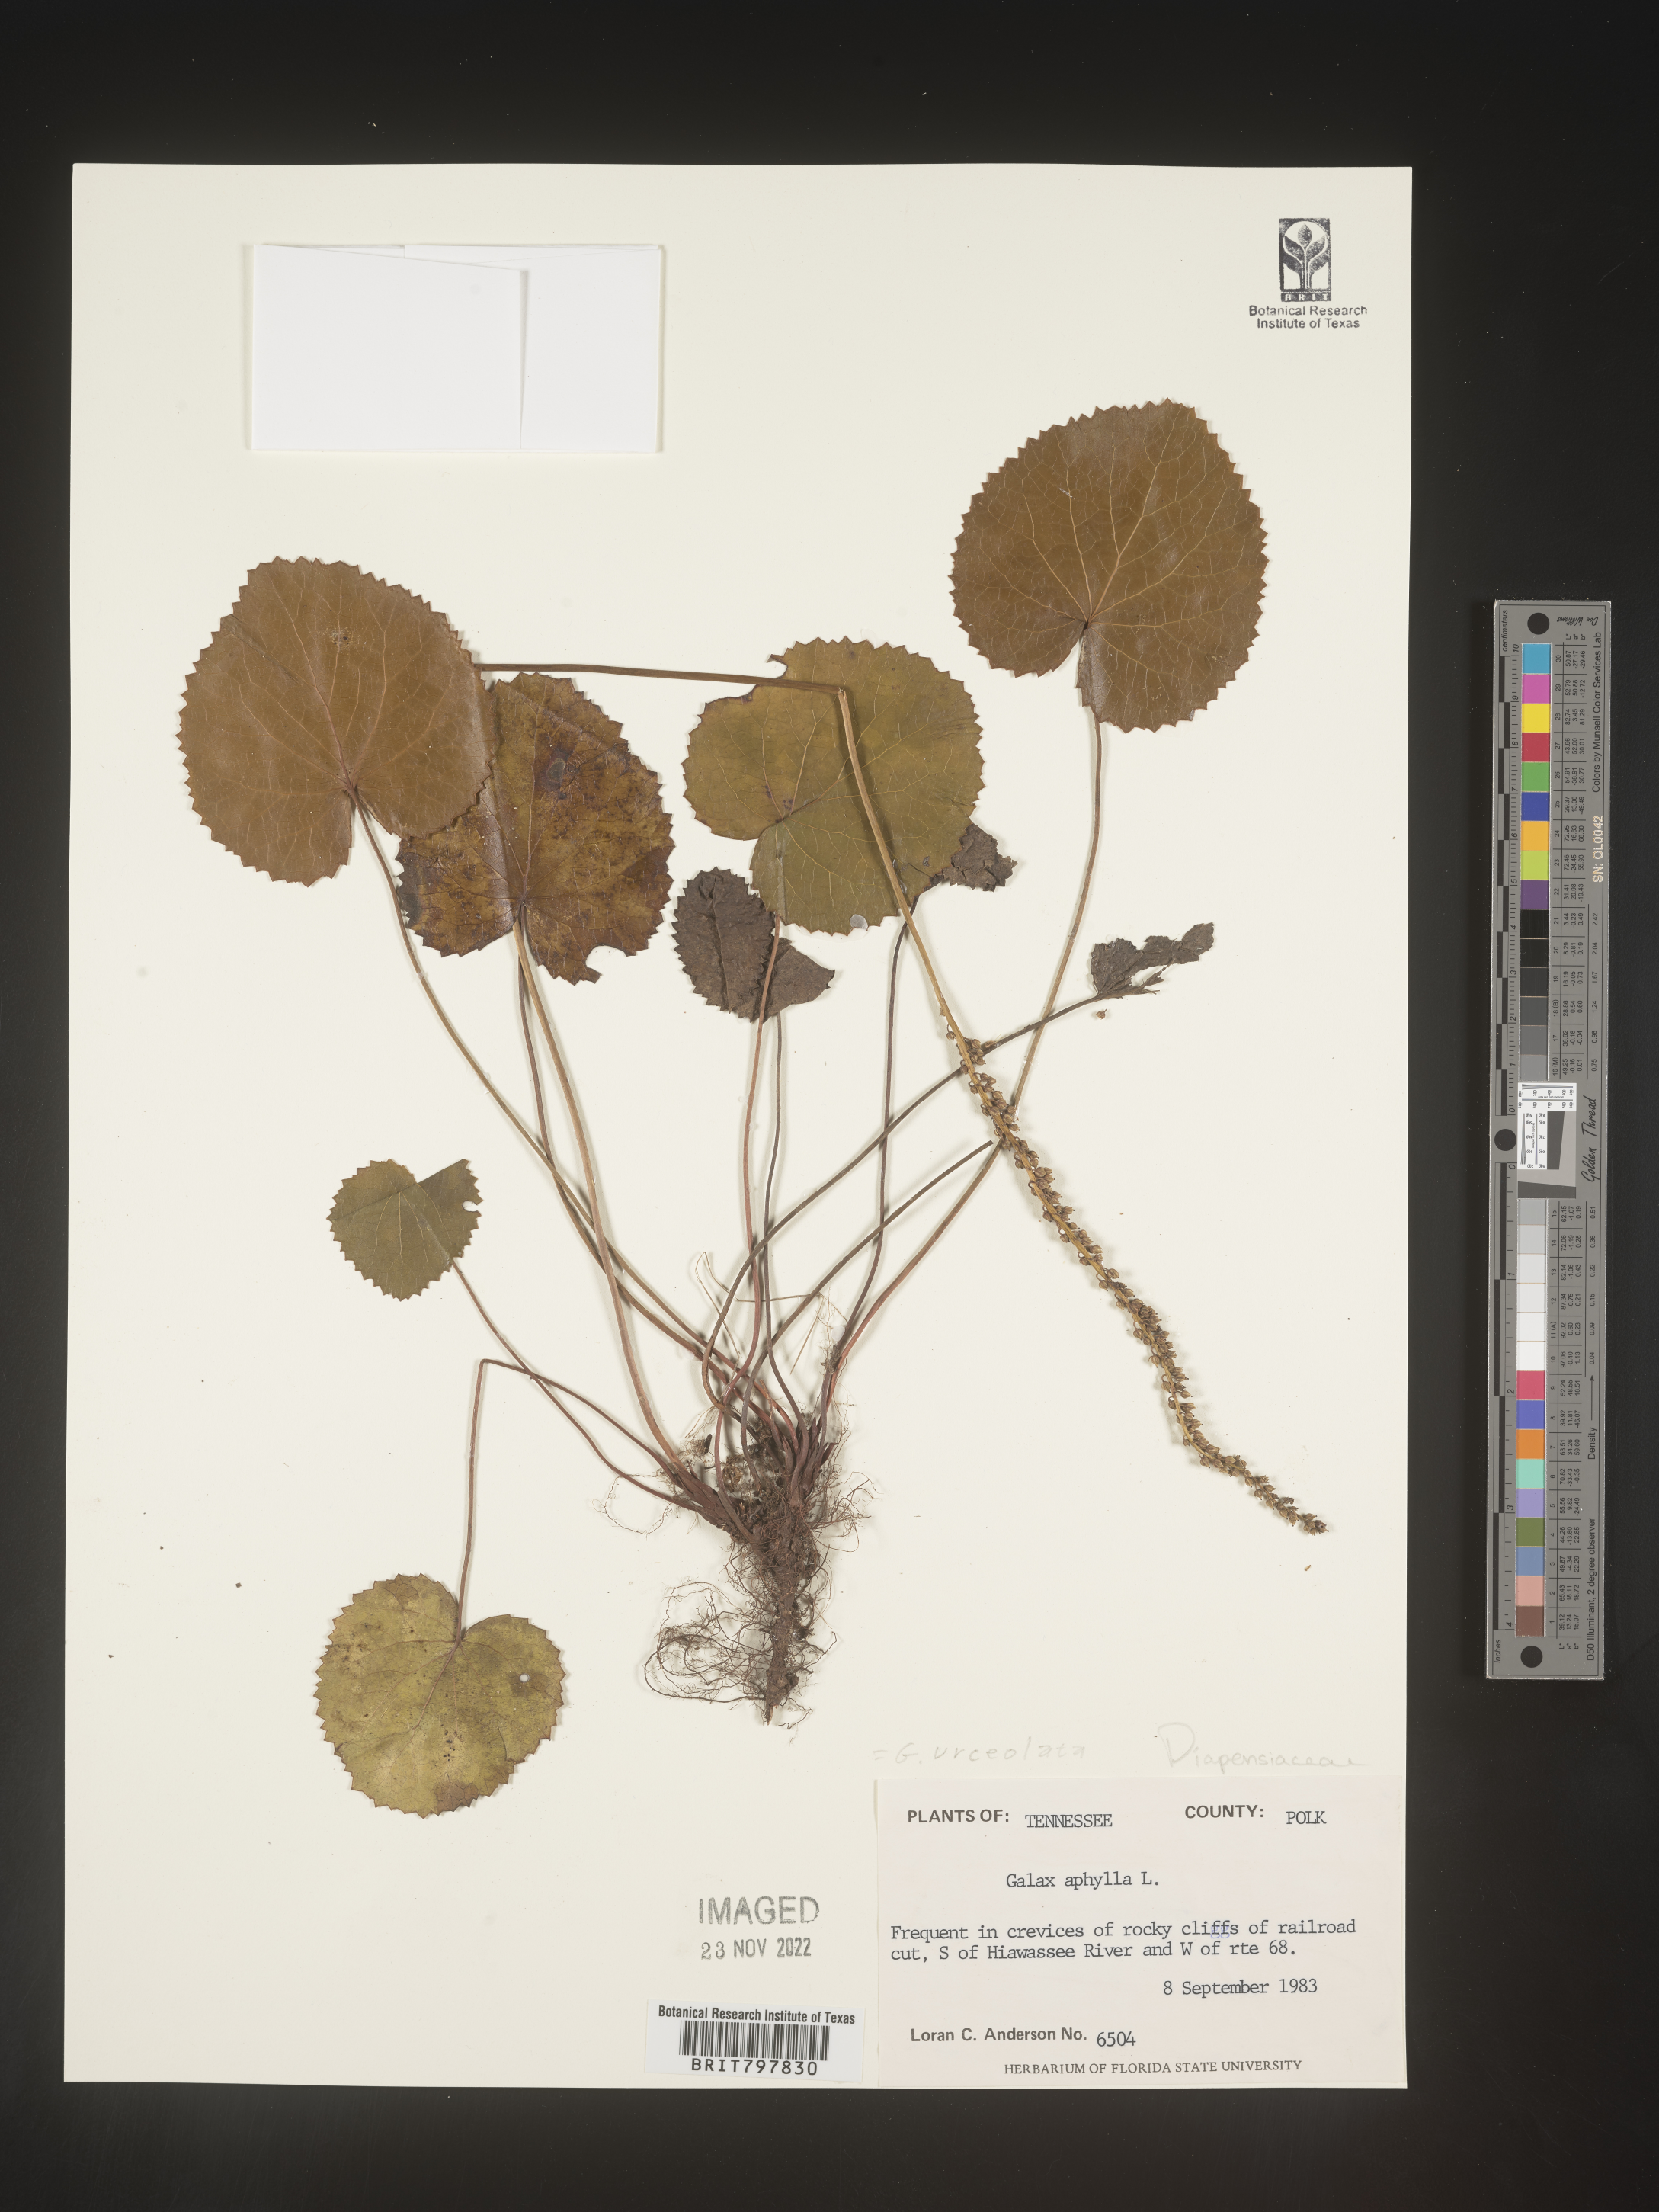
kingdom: Plantae
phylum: Tracheophyta
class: Magnoliopsida
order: Ericales
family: Diapensiaceae
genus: Galax
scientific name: Galax
